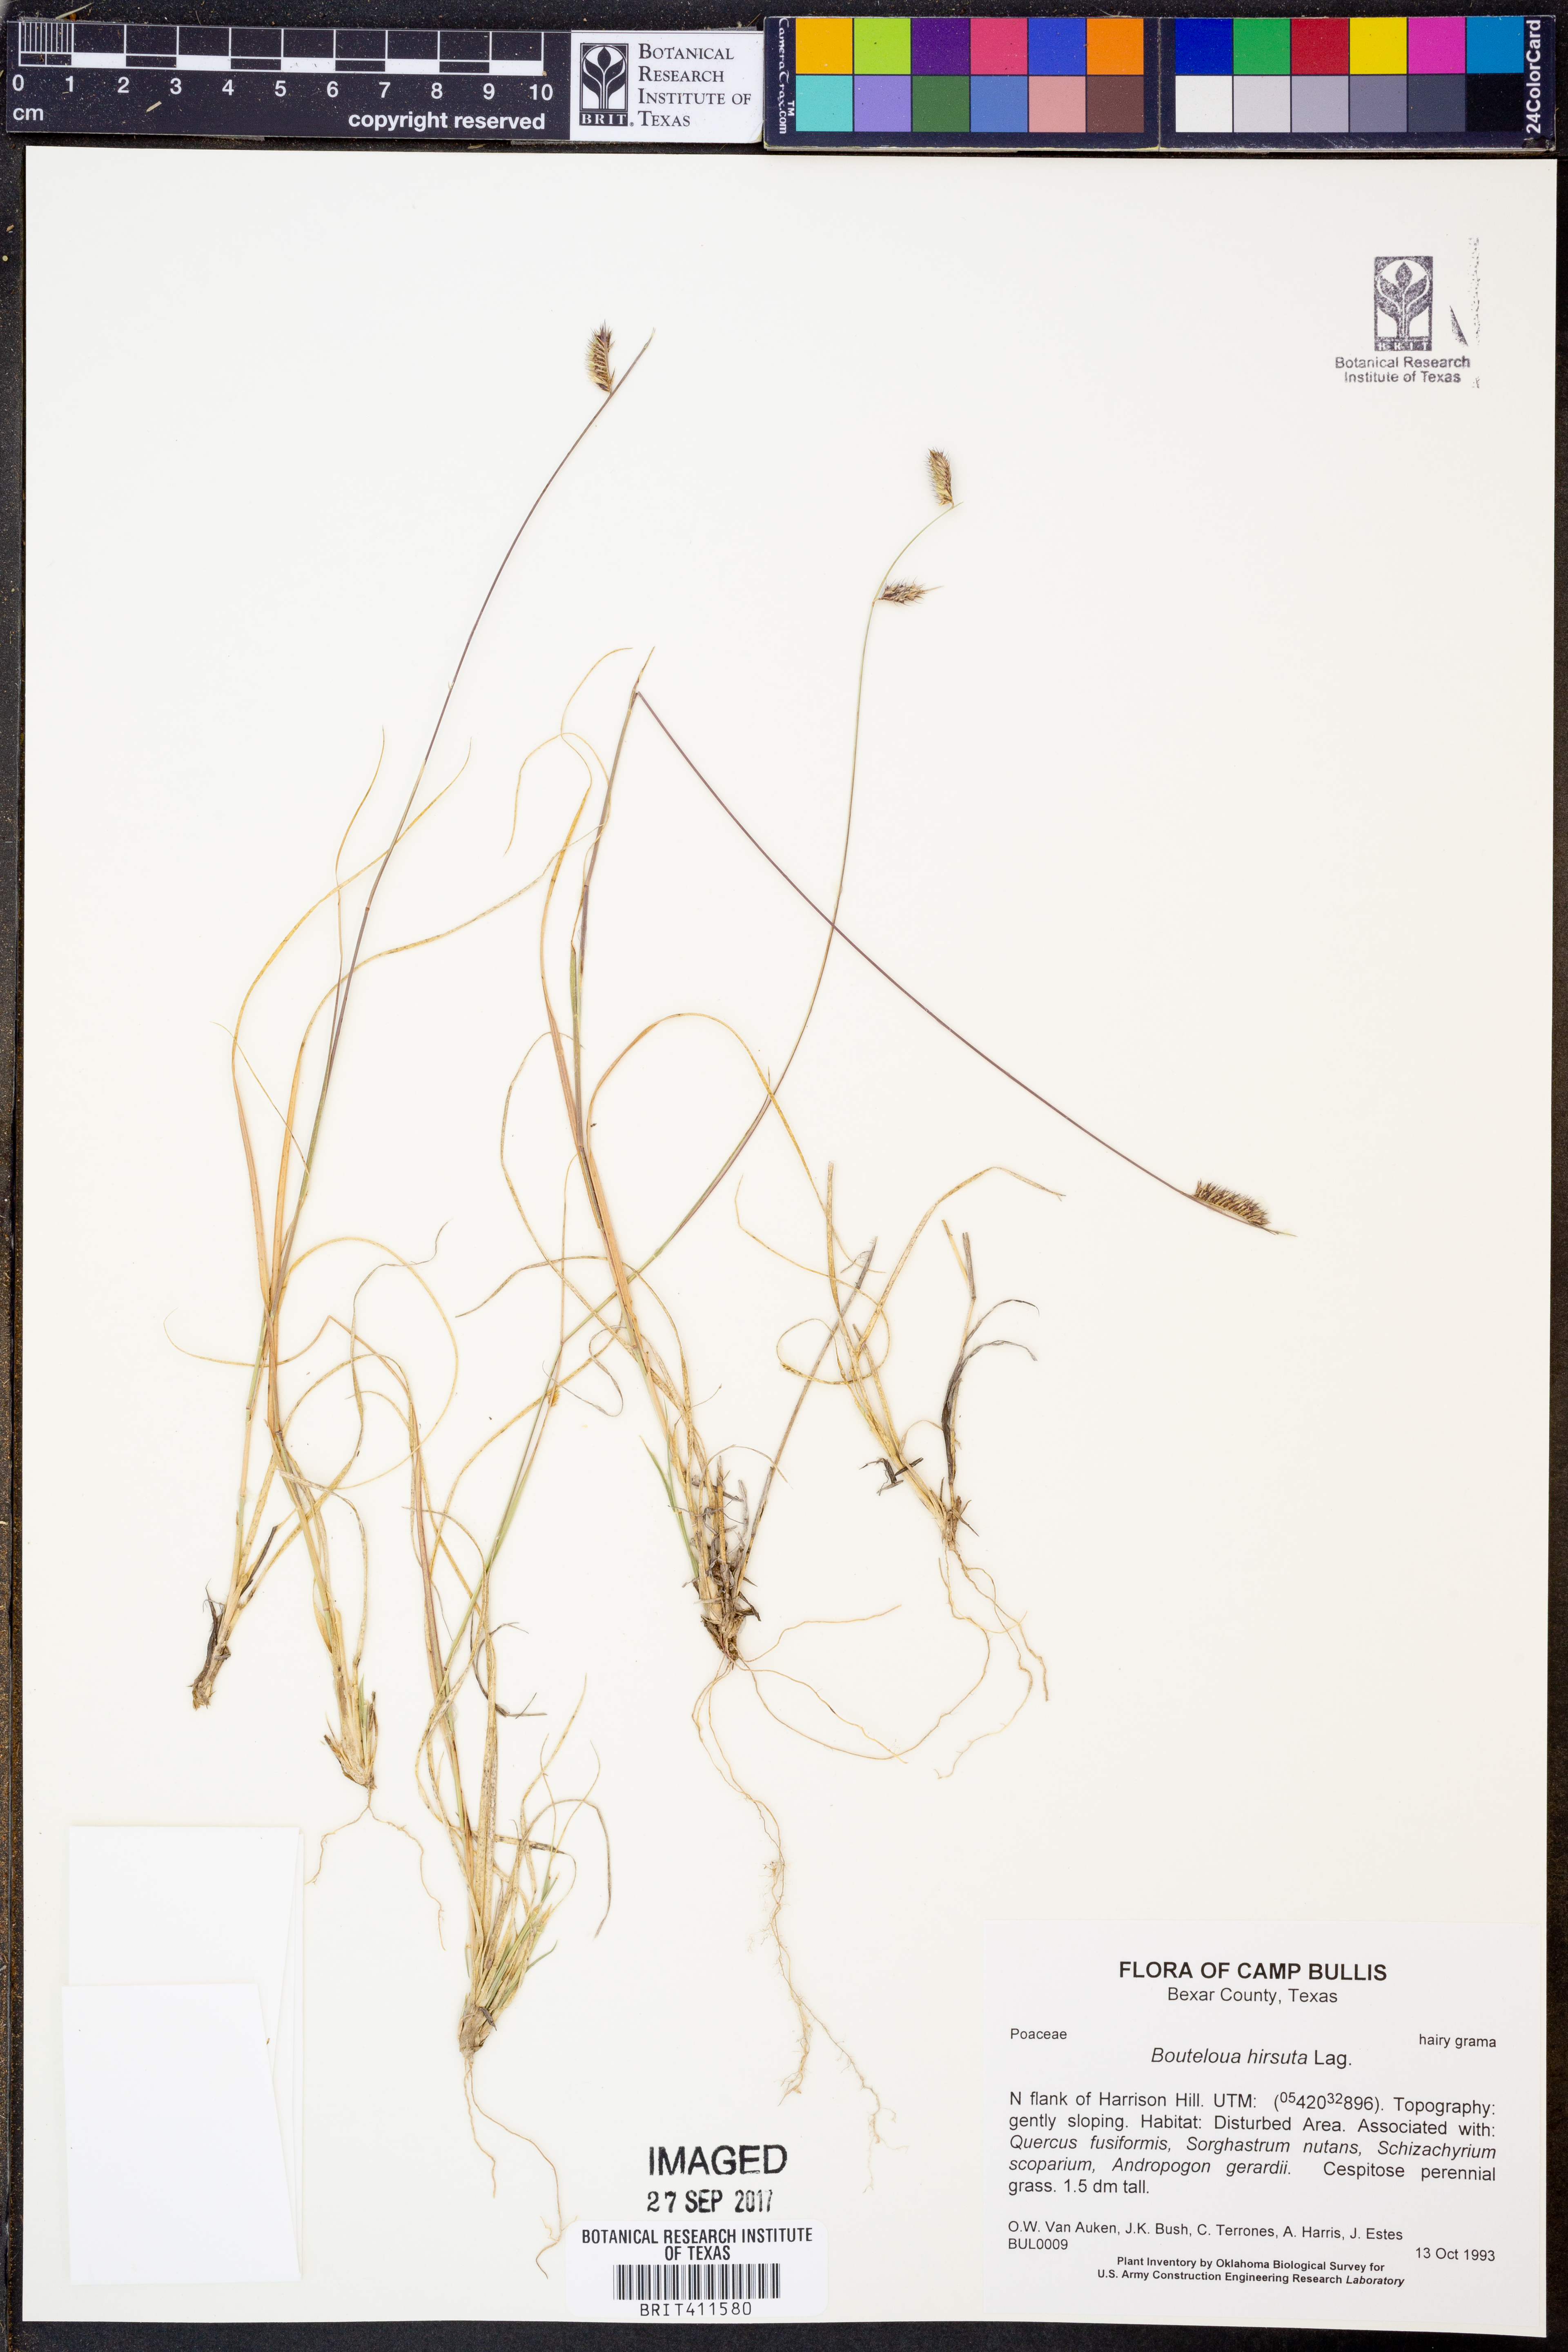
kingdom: Plantae
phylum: Tracheophyta
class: Liliopsida
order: Poales
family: Poaceae
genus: Bouteloua
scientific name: Bouteloua hirsuta
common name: Hairy grama
